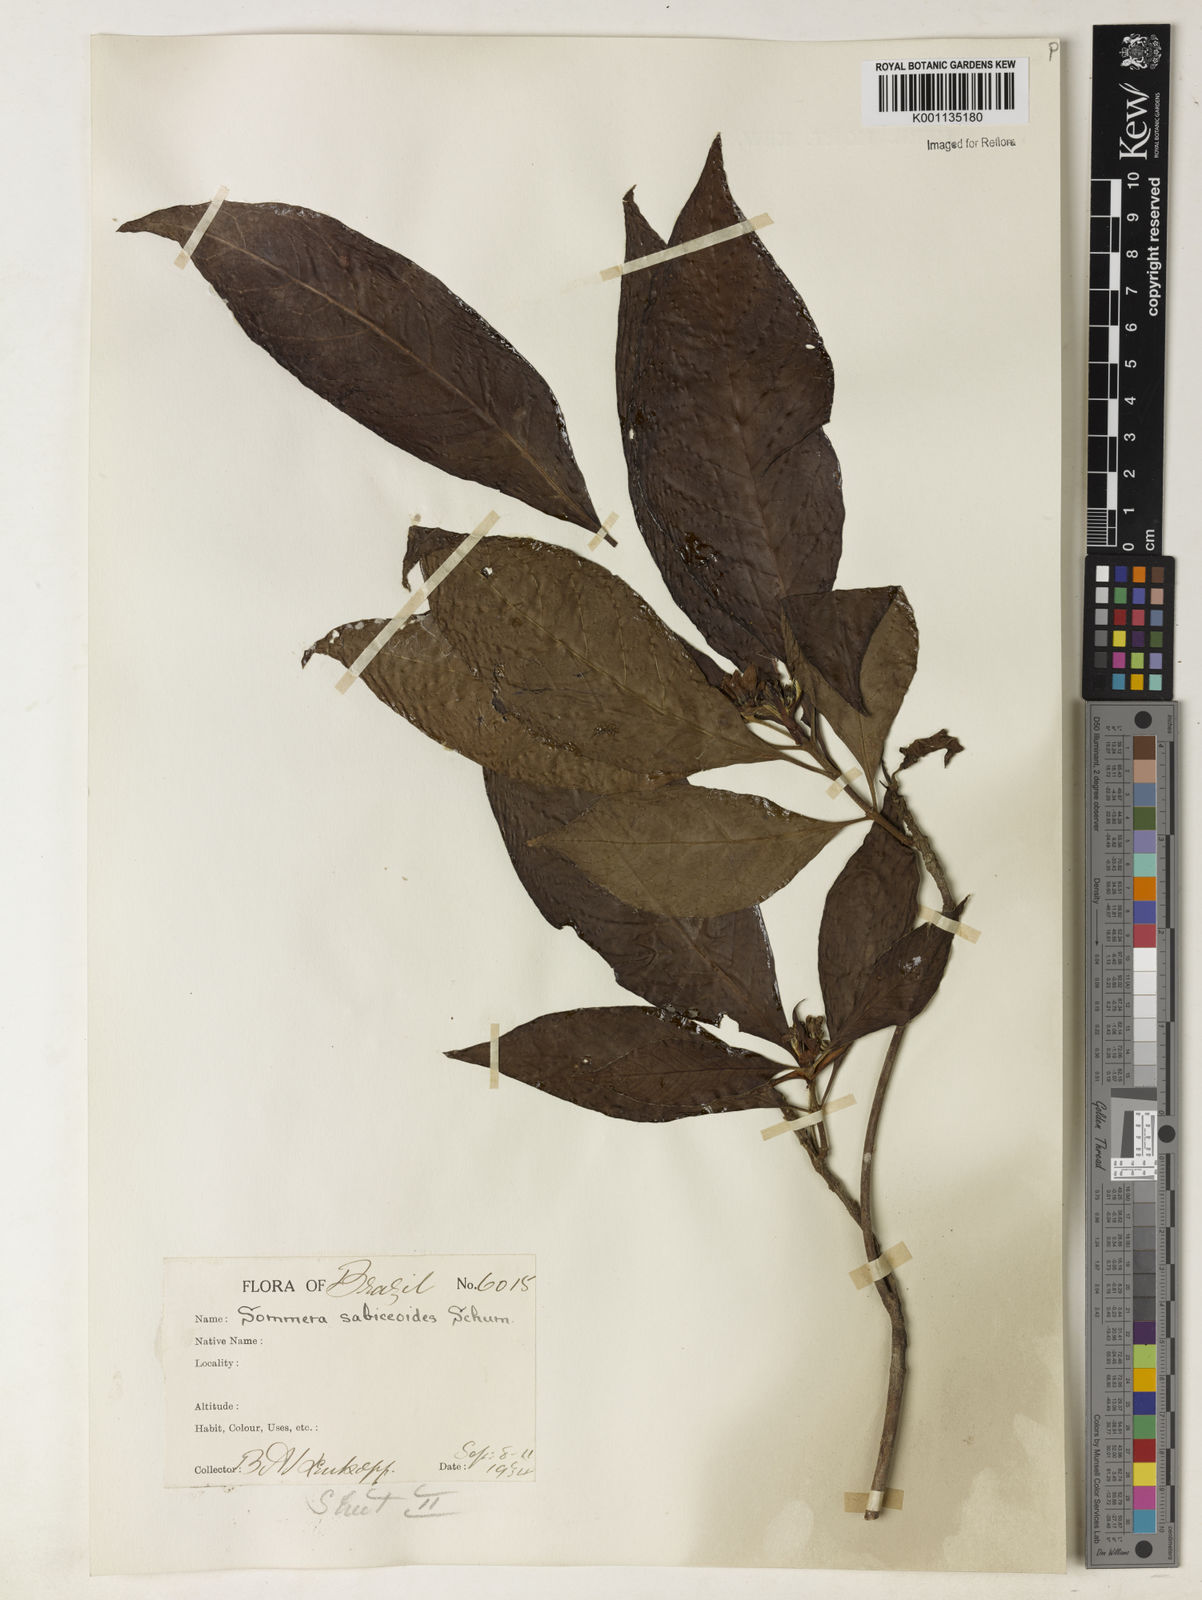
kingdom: Plantae
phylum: Tracheophyta
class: Magnoliopsida
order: Gentianales
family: Rubiaceae
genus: Sommera
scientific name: Sommera sabiceoides
